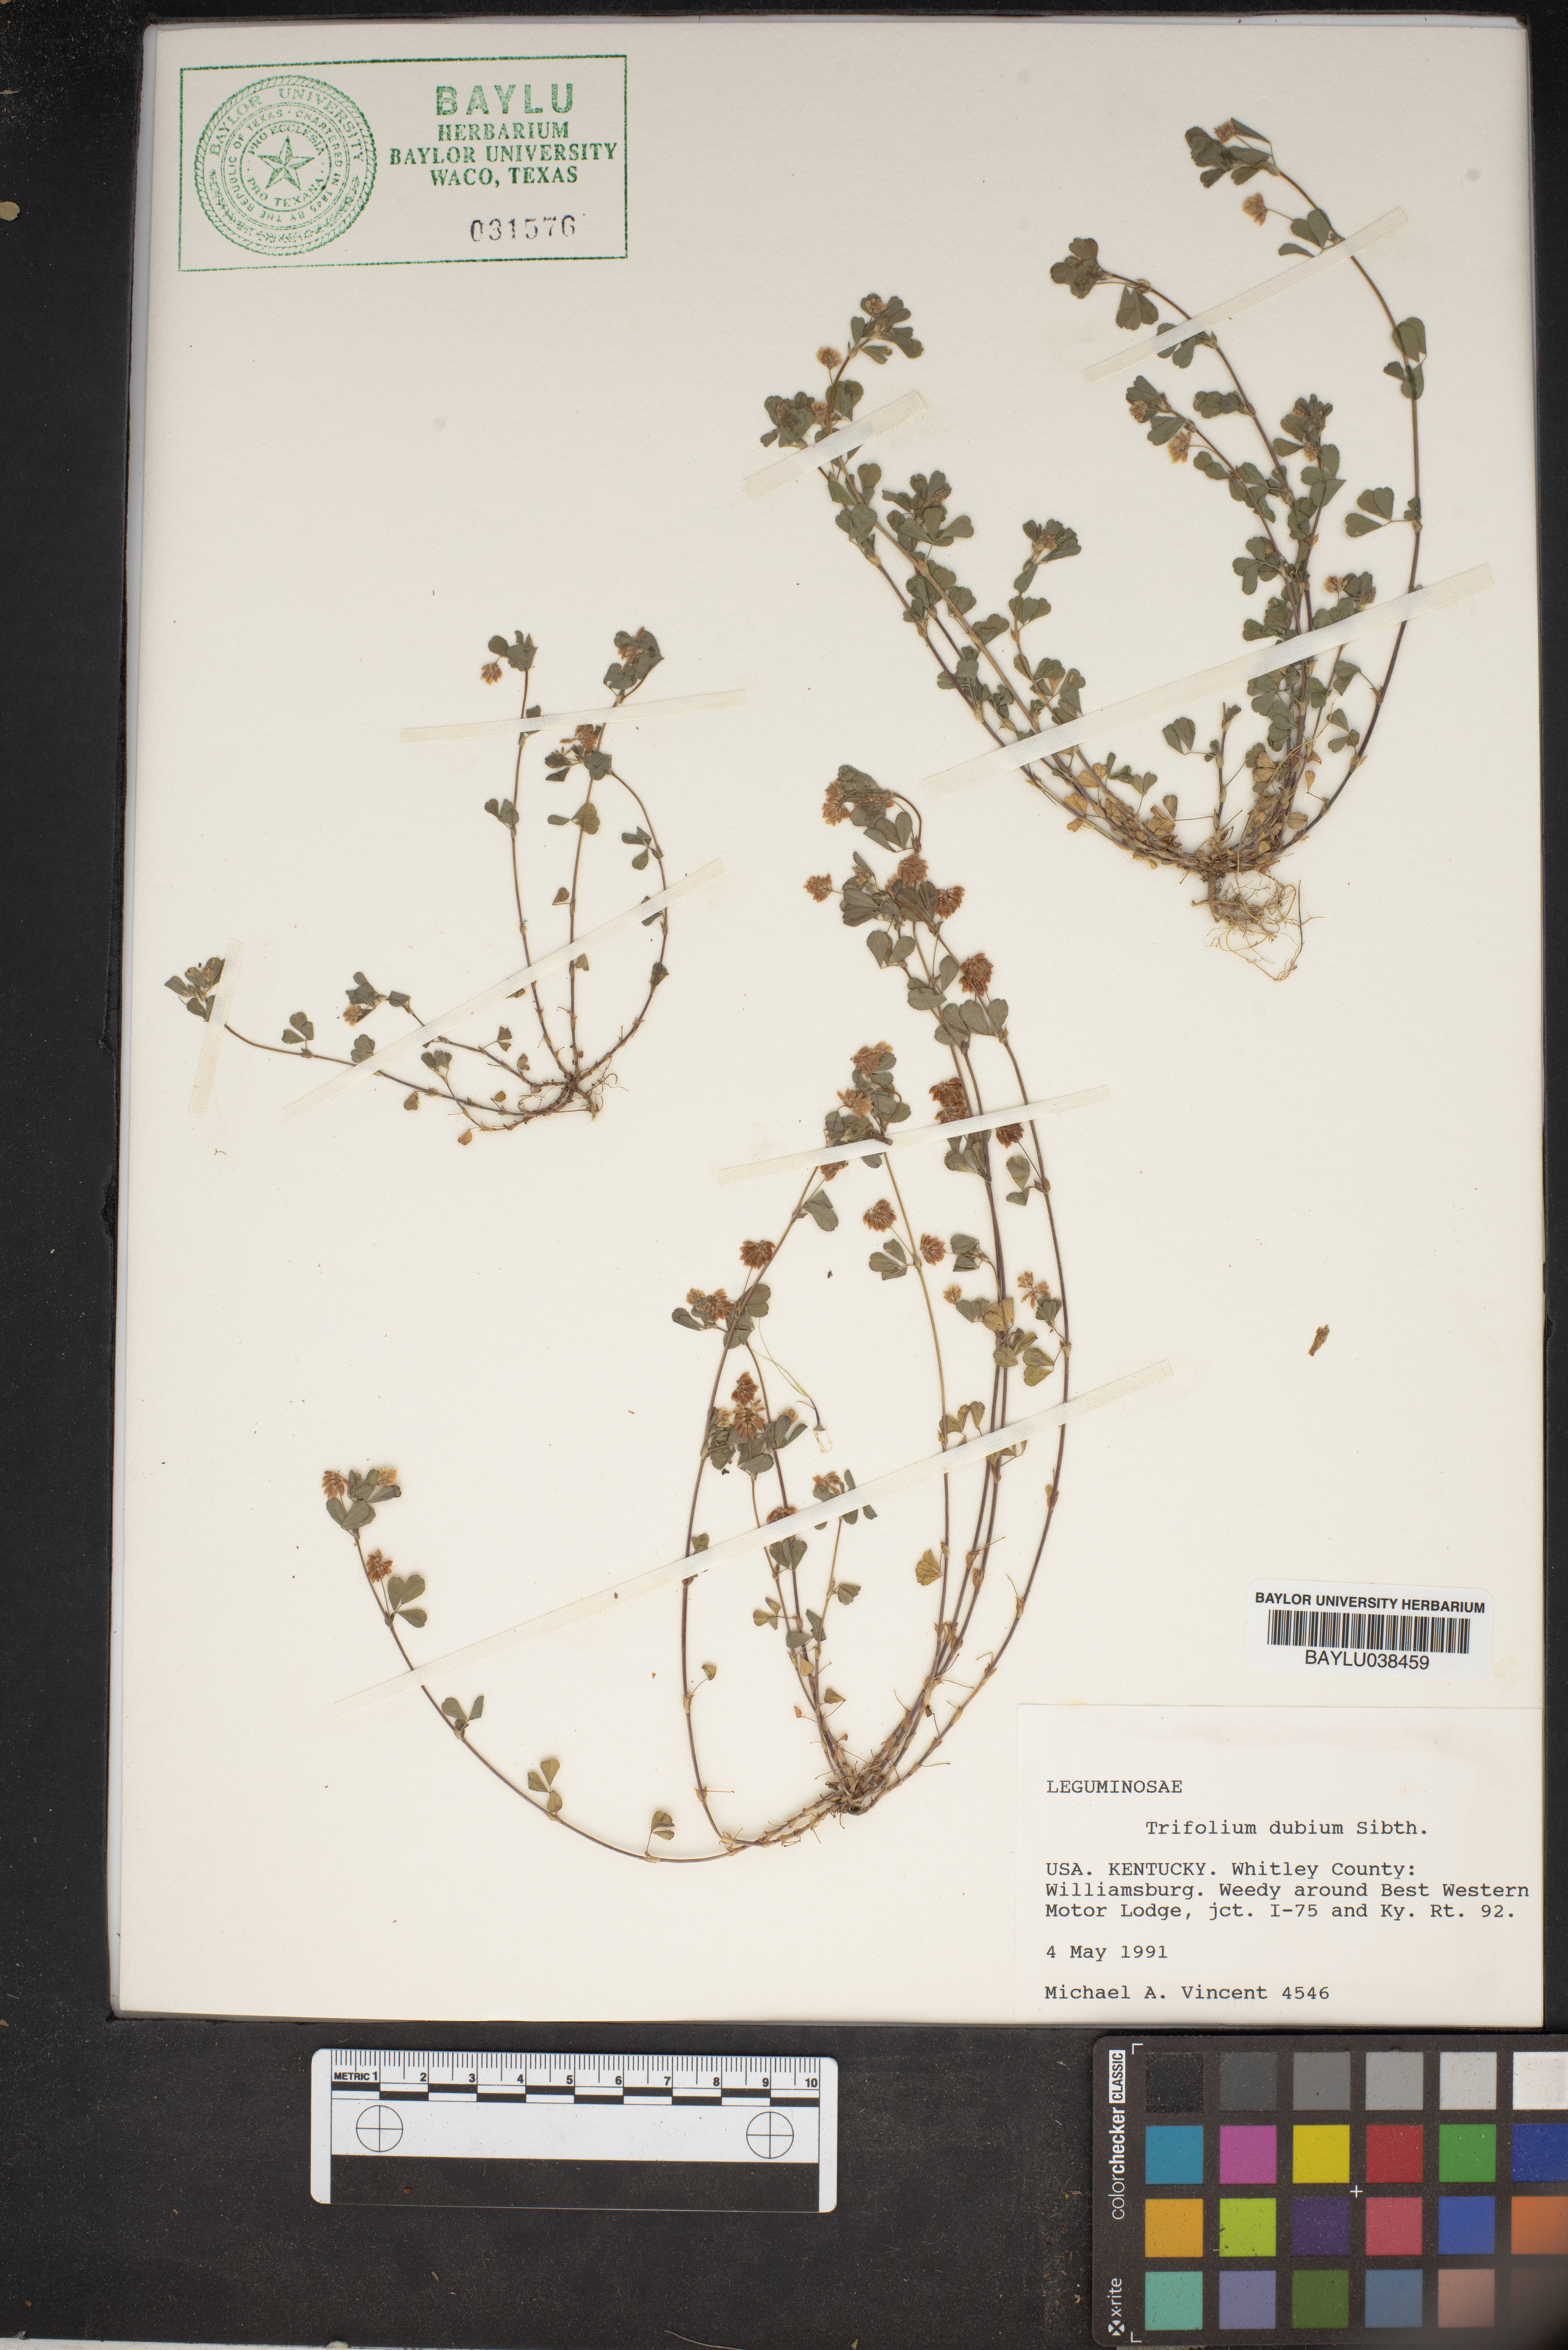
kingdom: Plantae
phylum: Tracheophyta
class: Magnoliopsida
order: Fabales
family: Fabaceae
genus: Trifolium
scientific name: Trifolium dubium
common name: Suckling clover
